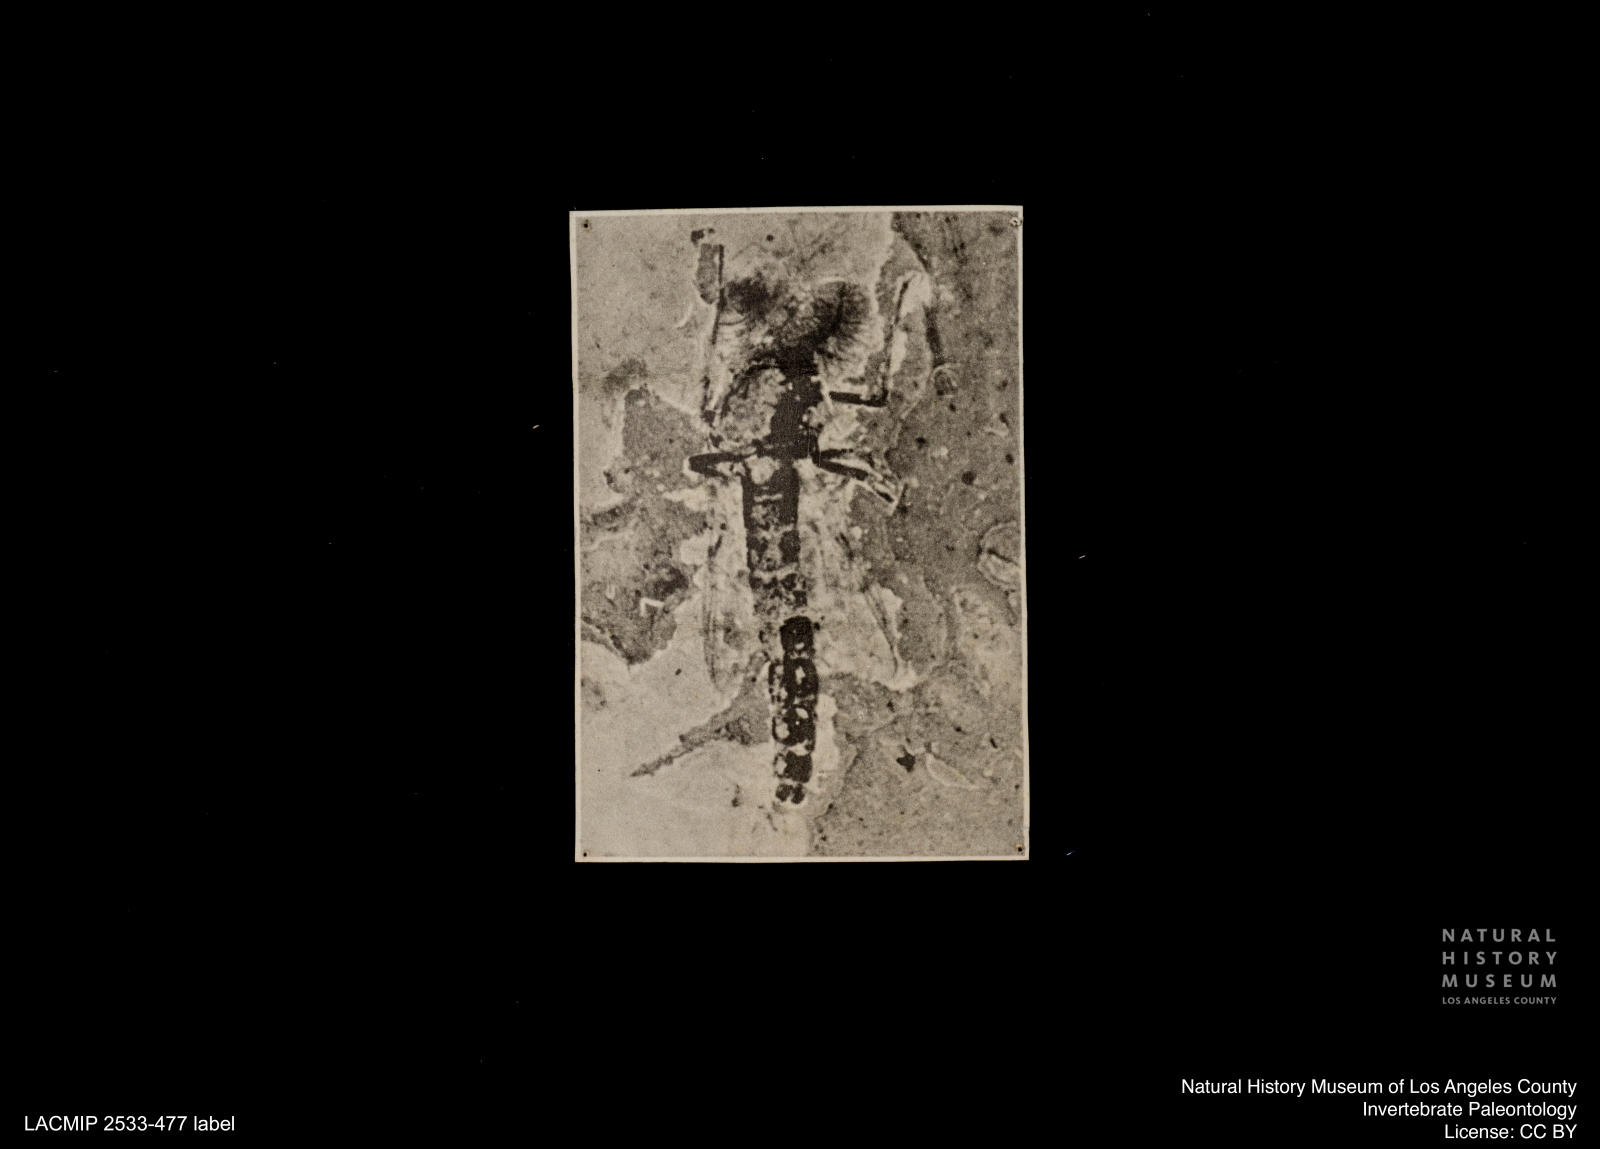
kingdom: Animalia
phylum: Arthropoda
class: Insecta
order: Diptera
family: Chironomidae
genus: Procladius
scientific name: Procladius
